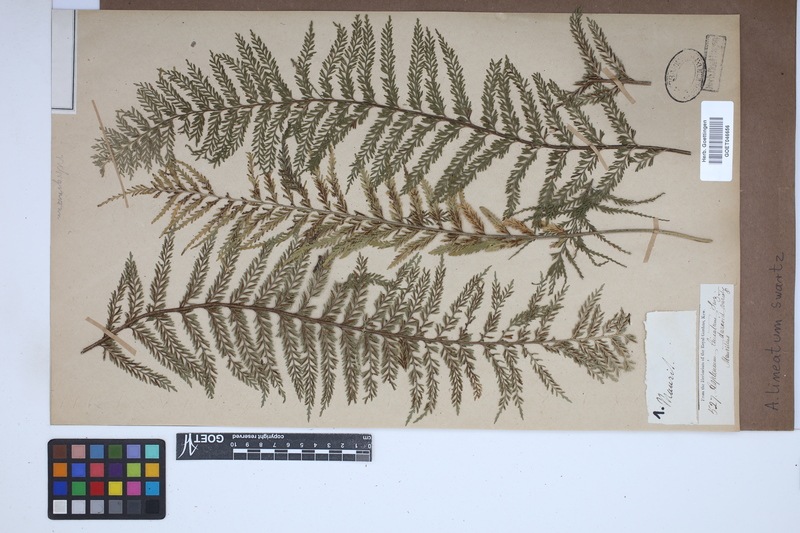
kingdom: Plantae
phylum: Tracheophyta
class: Polypodiopsida
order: Polypodiales
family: Aspleniaceae
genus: Asplenium
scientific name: Asplenium daucifolium
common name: Mauritius spleenwort
